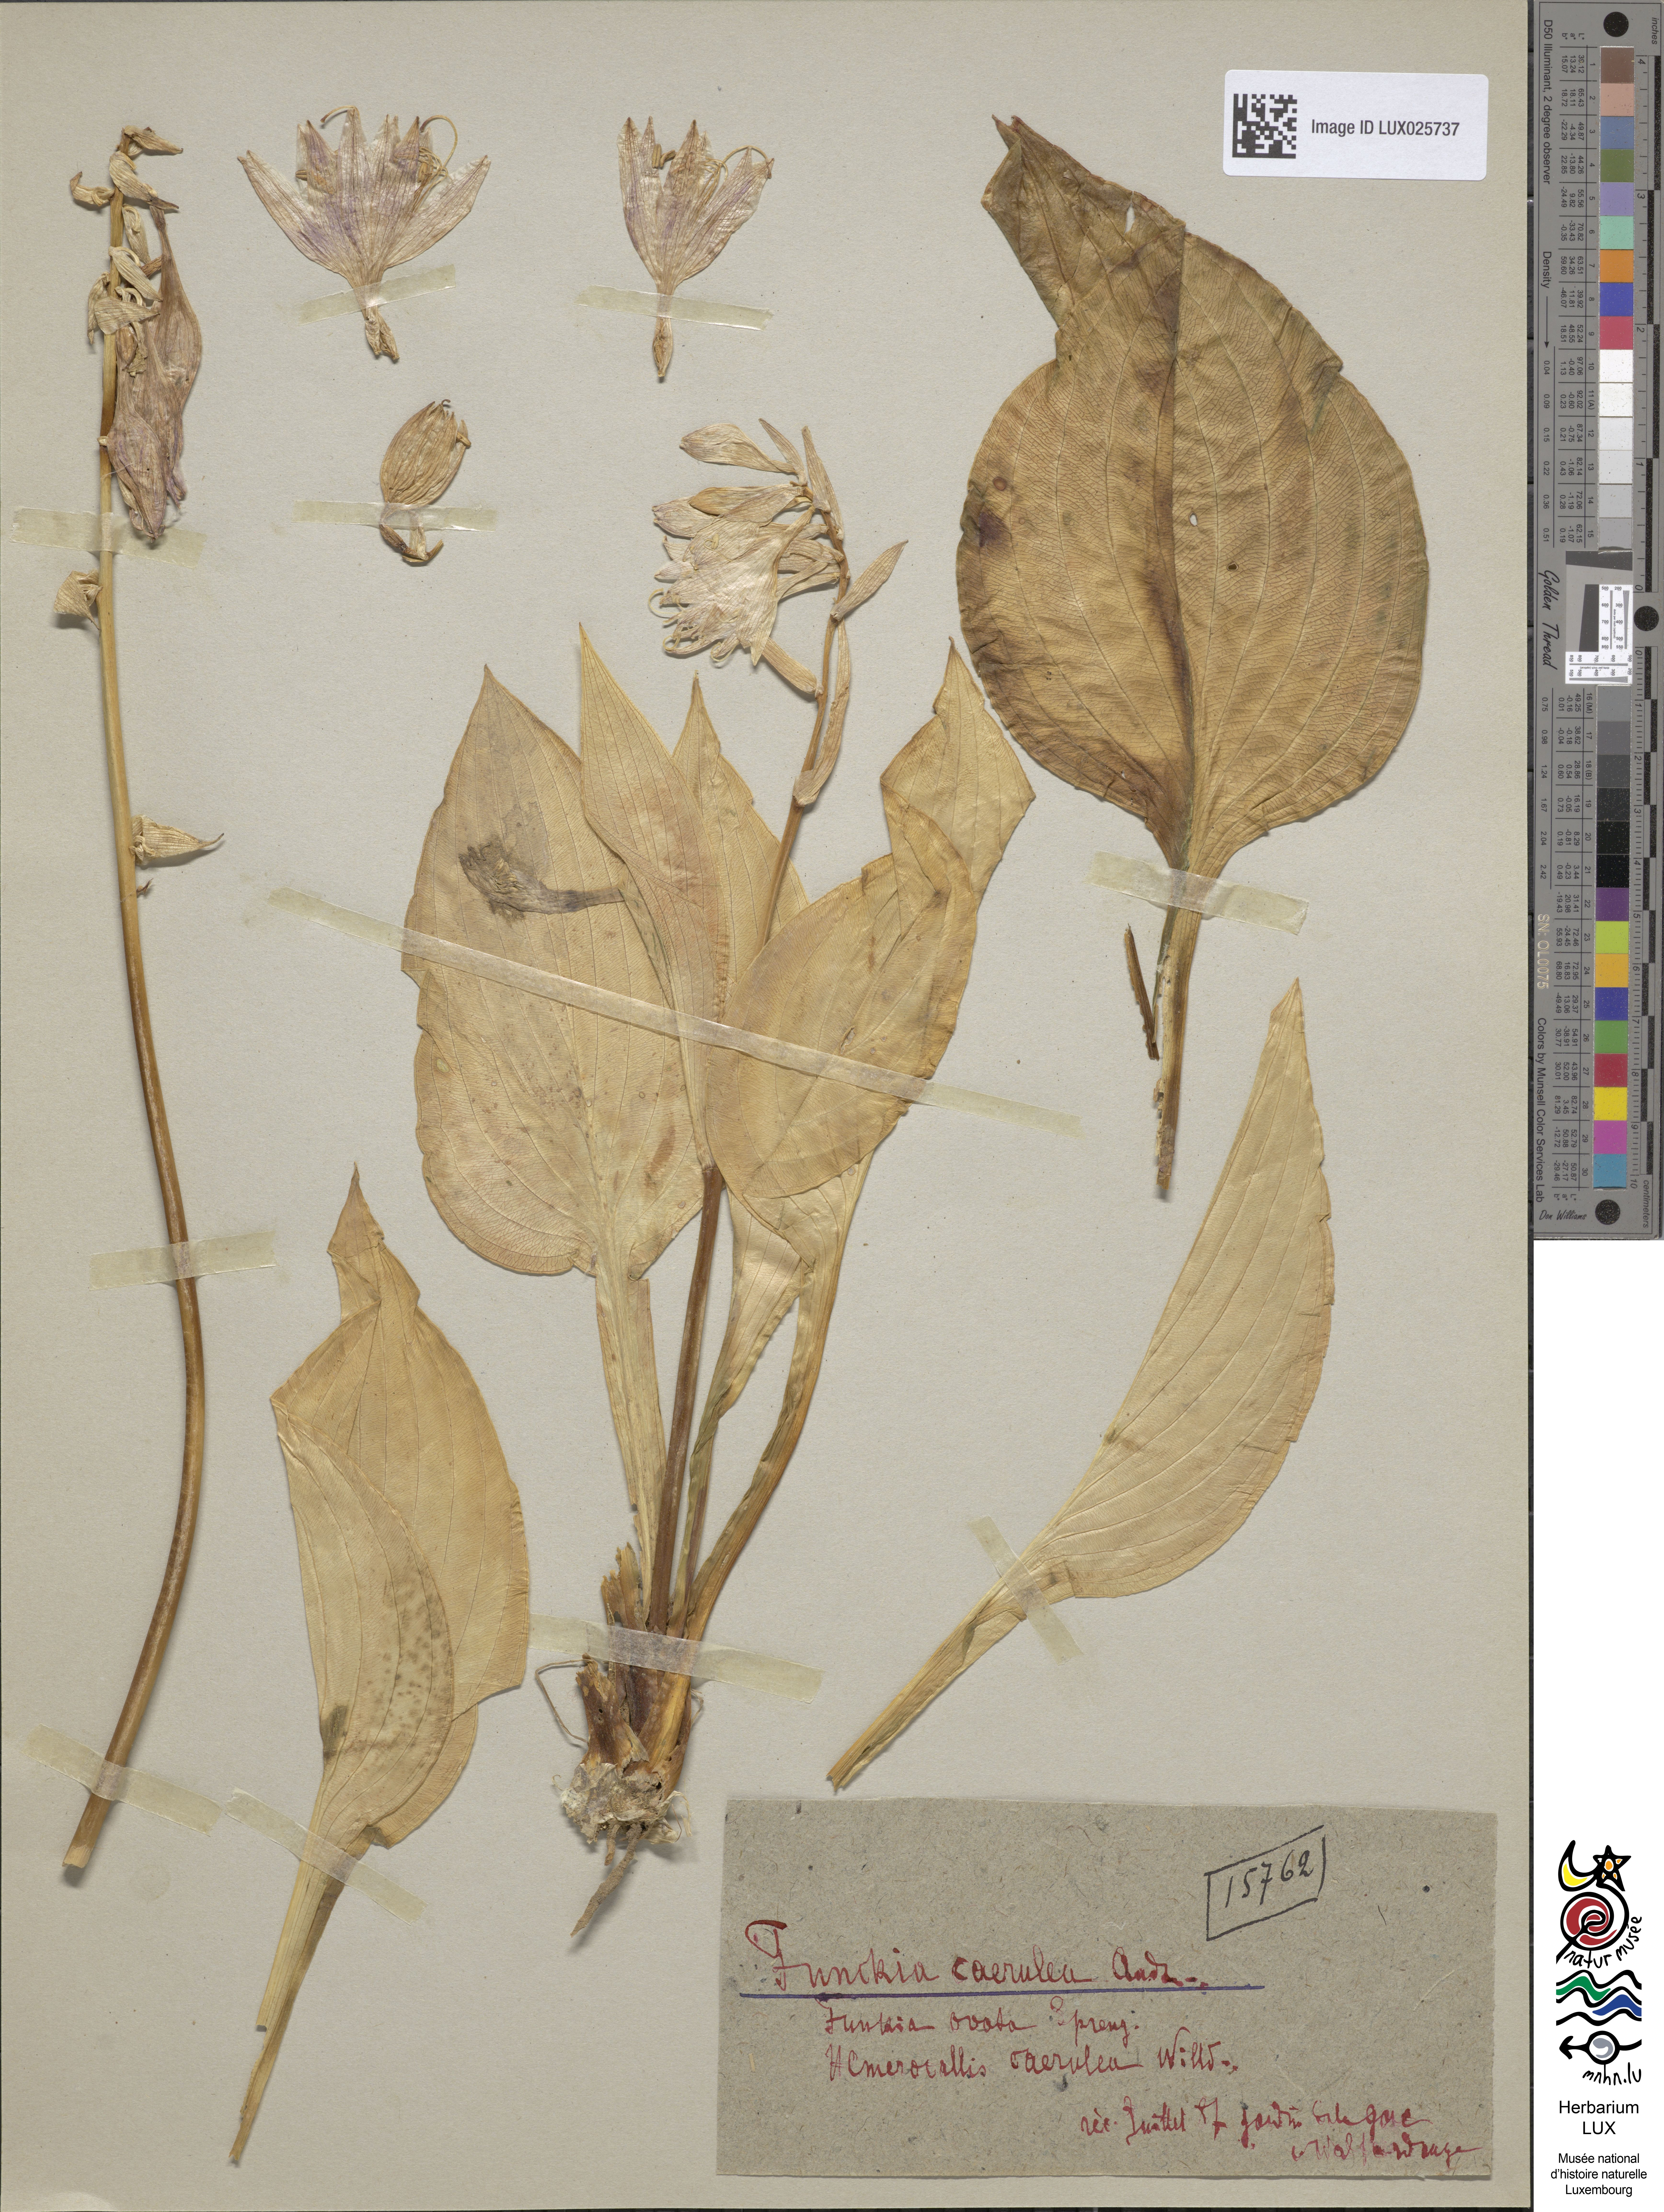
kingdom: Plantae
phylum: Tracheophyta
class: Liliopsida
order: Asparagales
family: Asparagaceae
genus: Hosta
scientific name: Hosta ventricosa
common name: Blue plantain-lily
